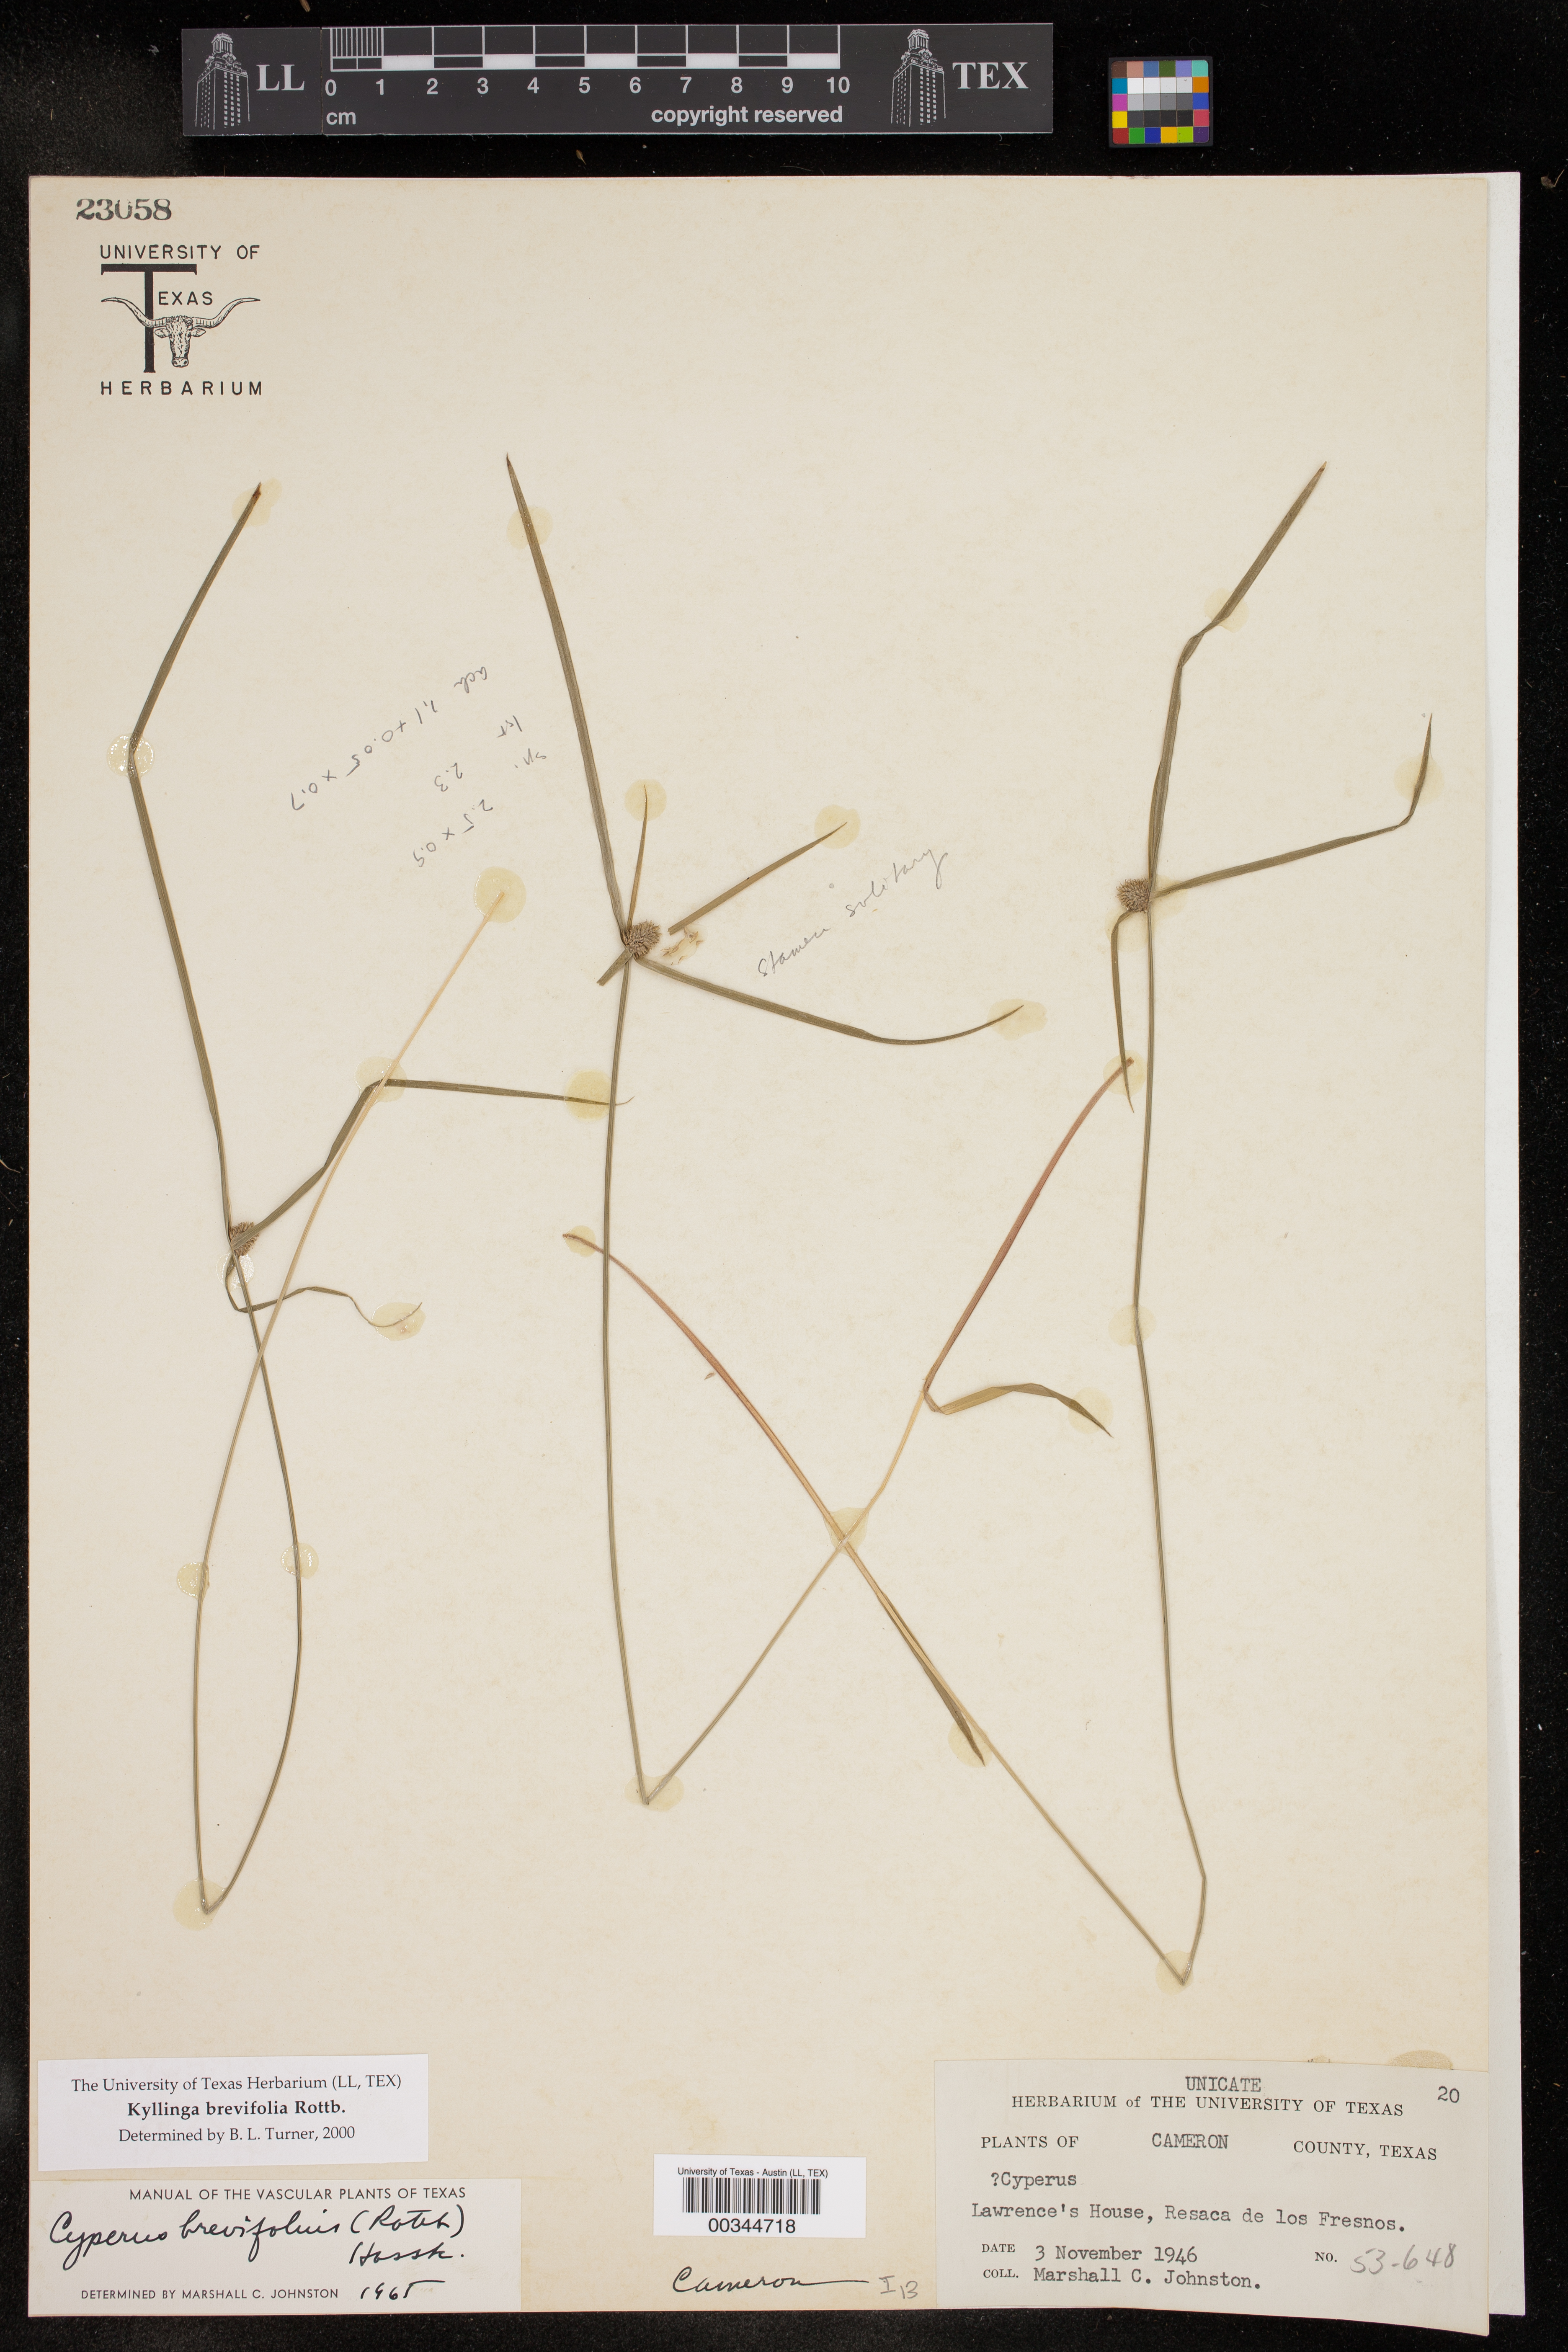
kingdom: Plantae
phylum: Tracheophyta
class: Liliopsida
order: Poales
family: Cyperaceae
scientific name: Cyperaceae
